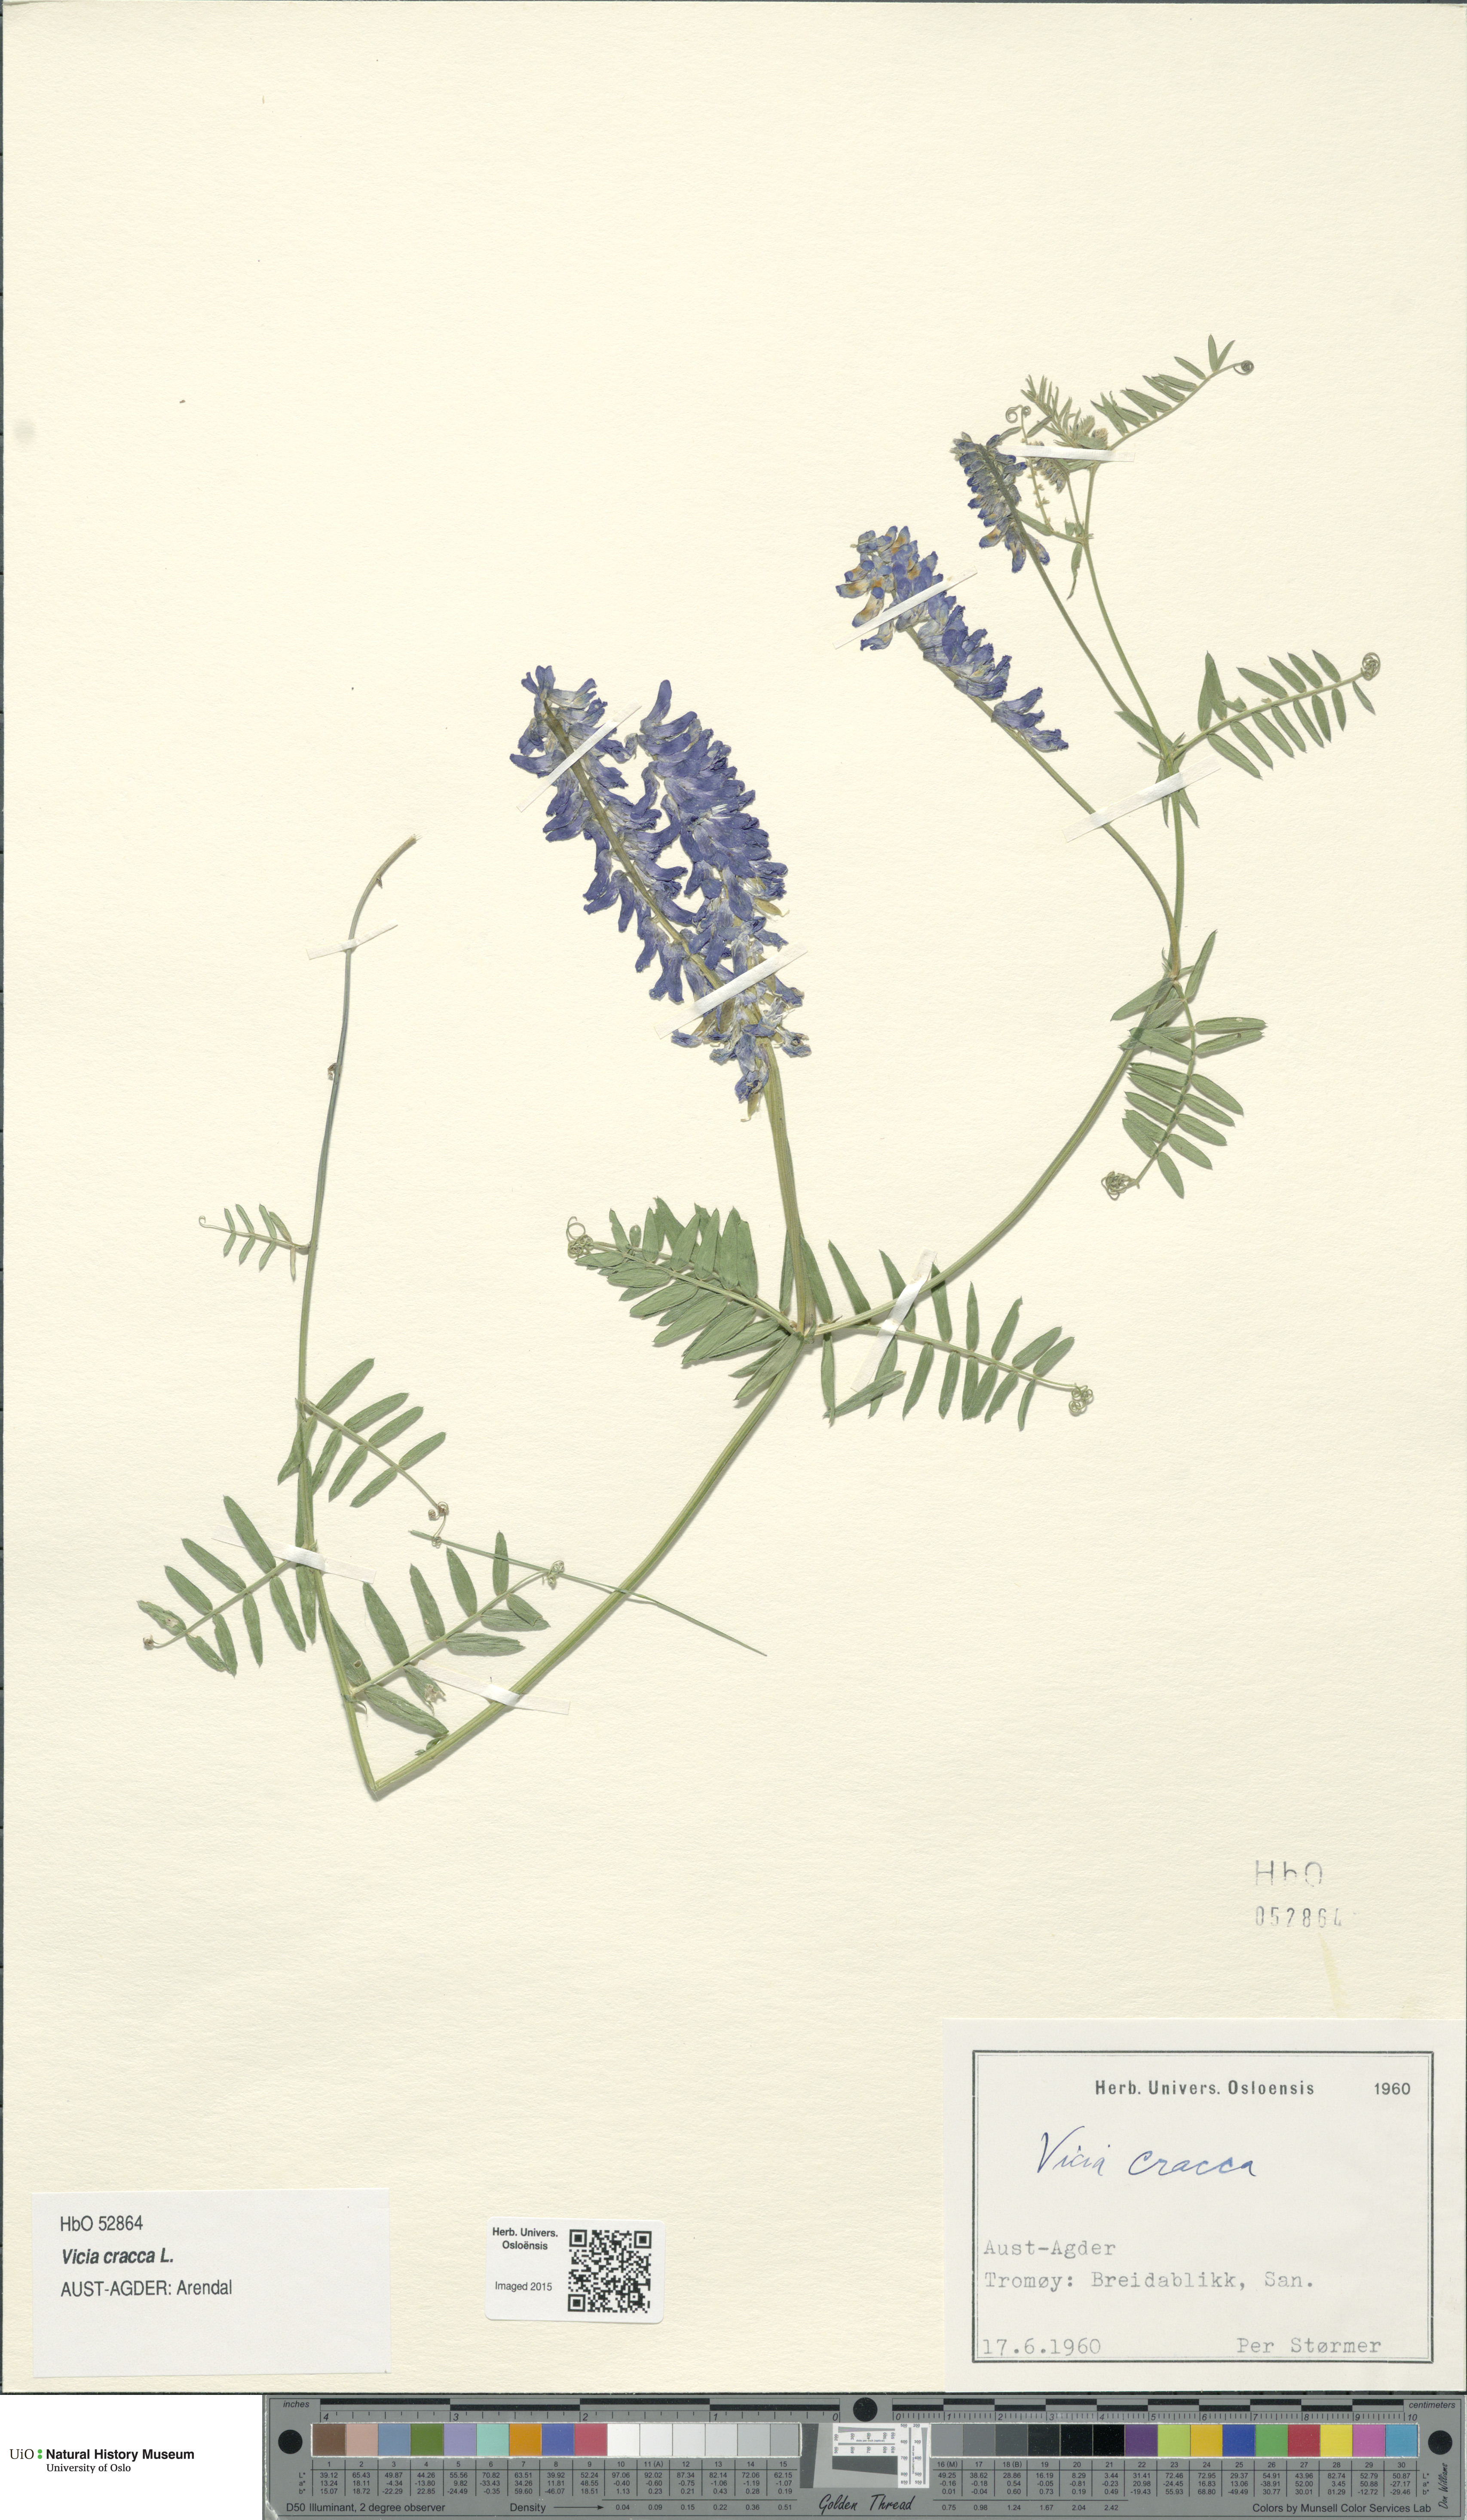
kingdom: Plantae
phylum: Tracheophyta
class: Magnoliopsida
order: Fabales
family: Fabaceae
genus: Vicia
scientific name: Vicia cracca
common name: Bird vetch
